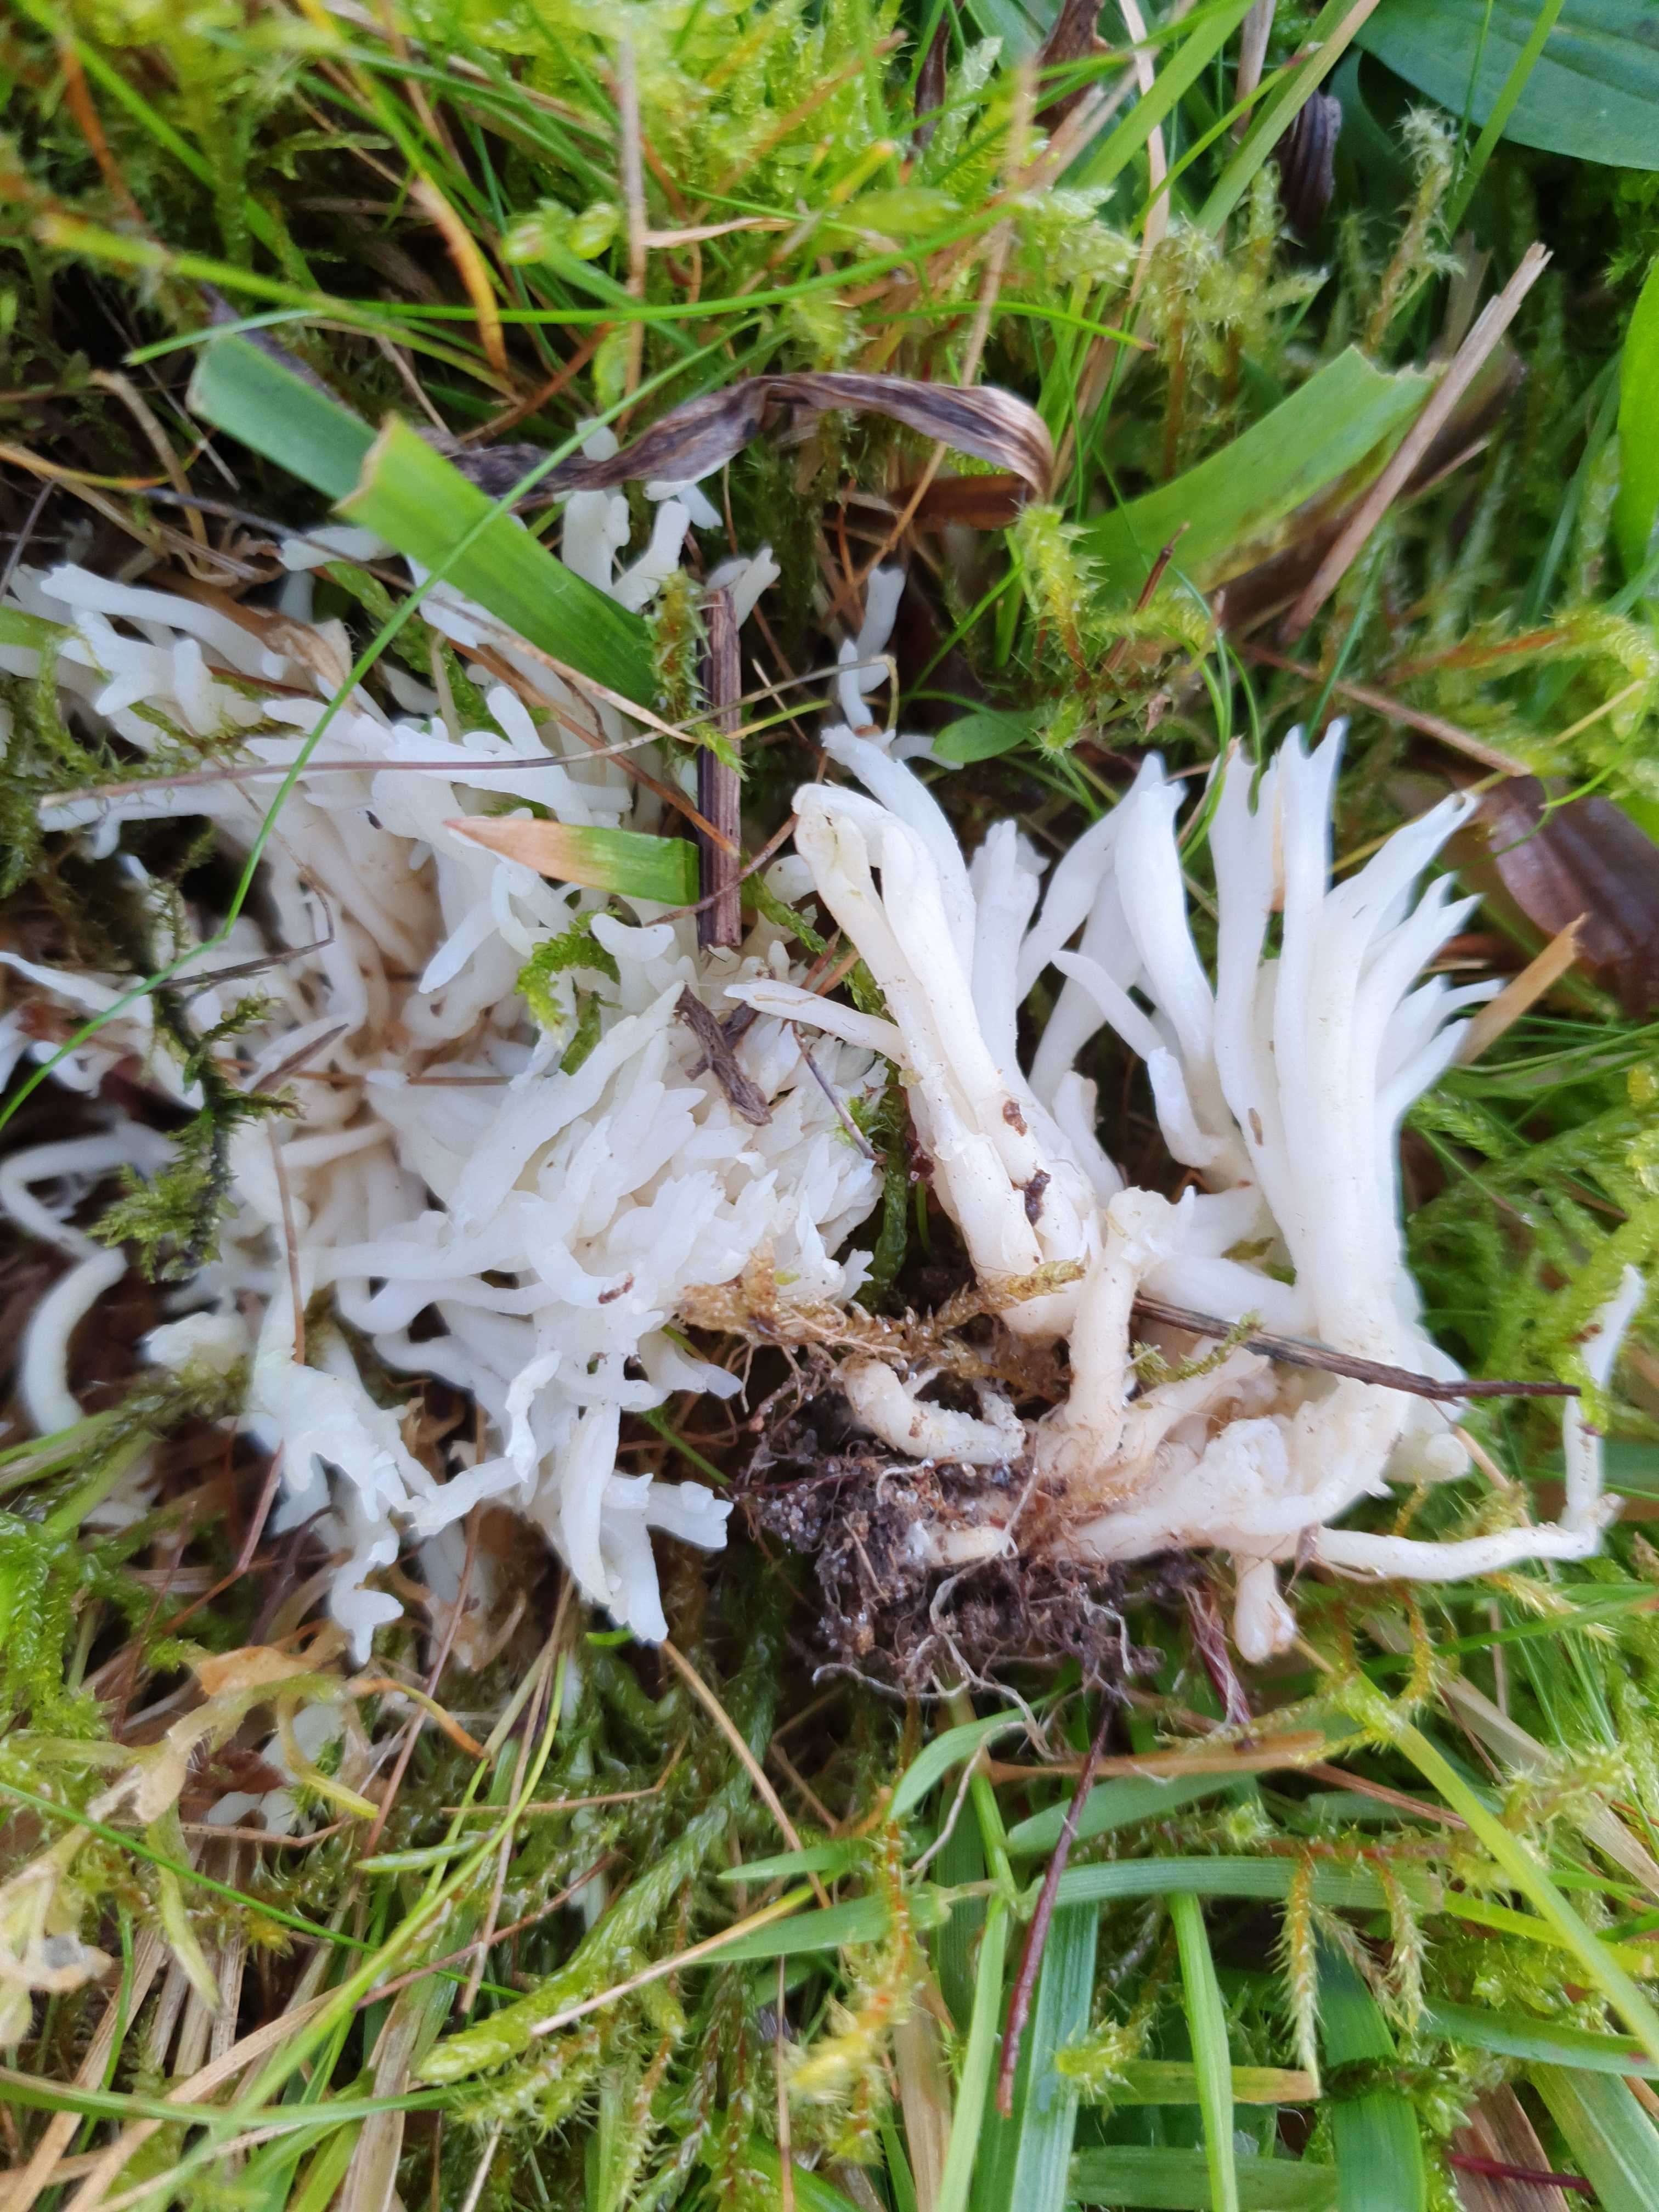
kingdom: Fungi
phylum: Basidiomycota
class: Agaricomycetes
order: Agaricales
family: Clavariaceae
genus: Ramariopsis
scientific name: Ramariopsis robusta
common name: tykgrenet køllesvamp
